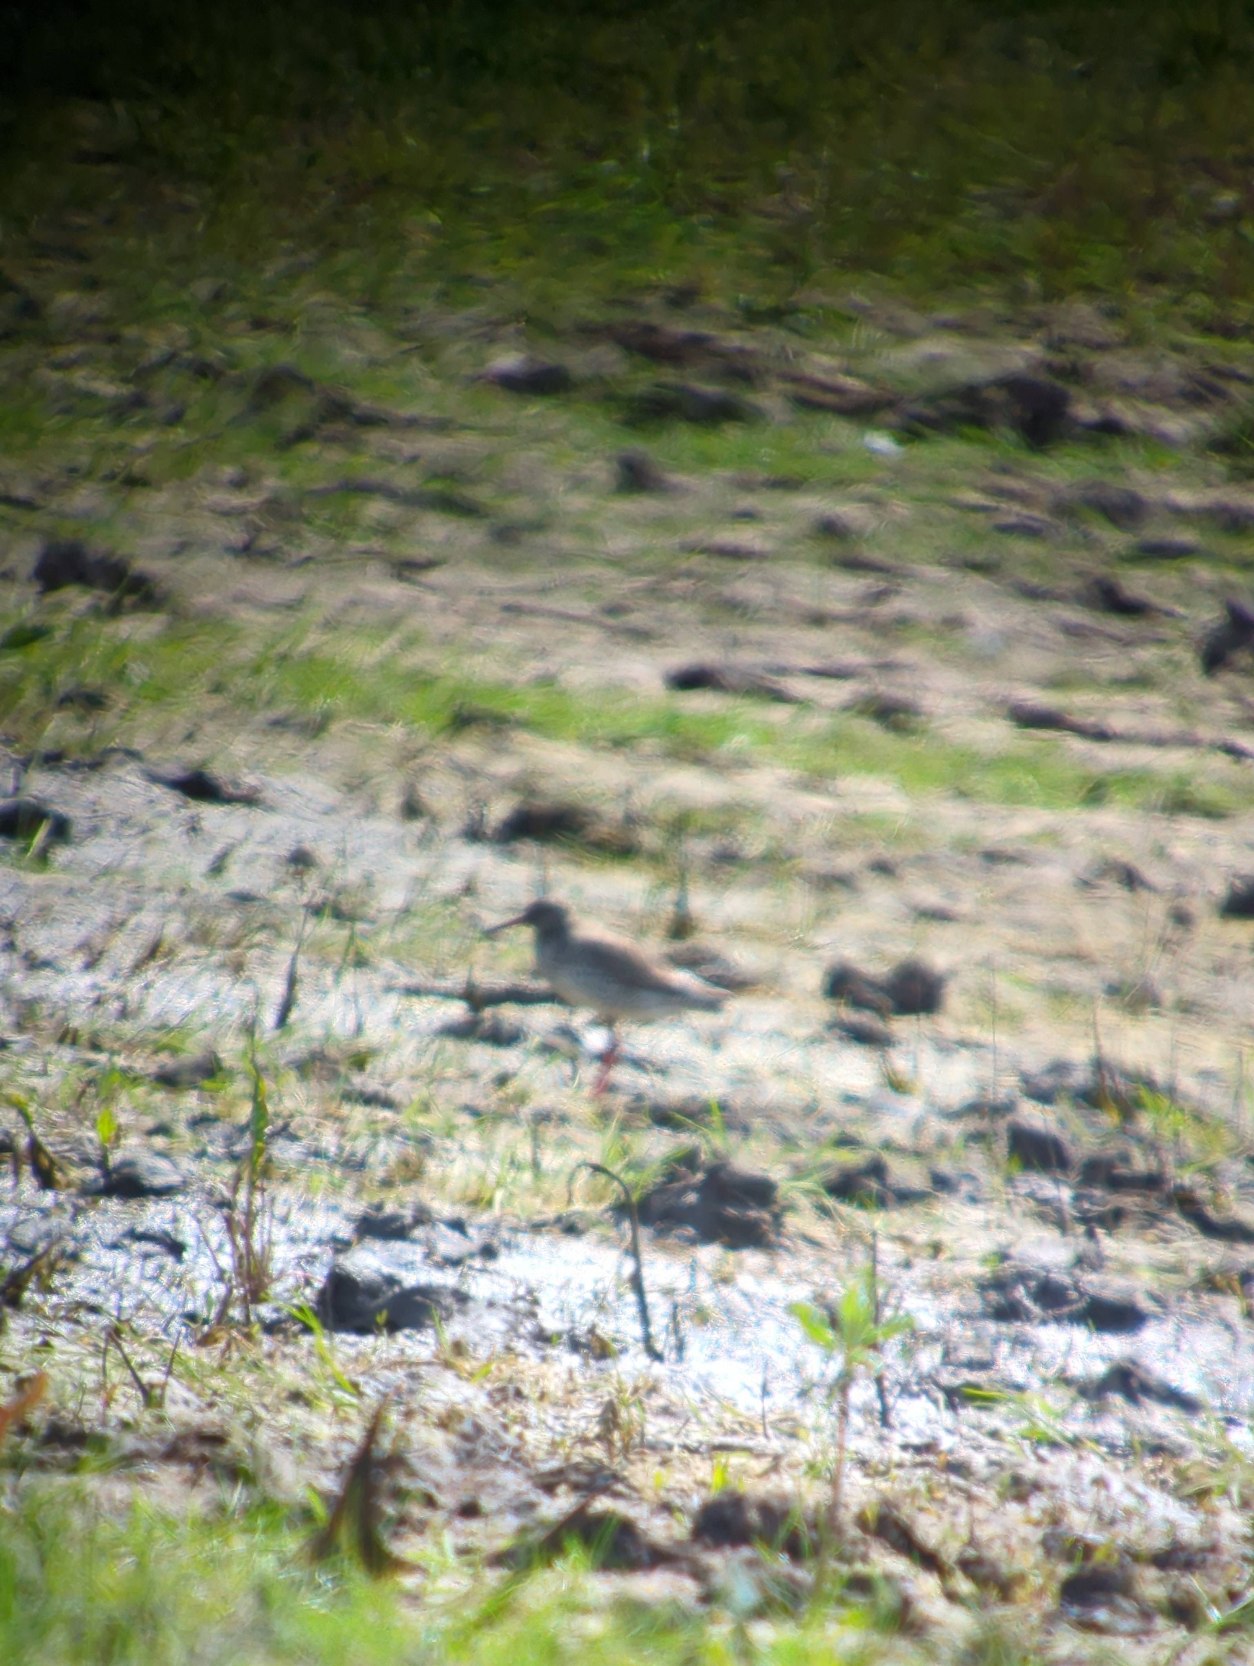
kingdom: Animalia
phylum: Chordata
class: Aves
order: Charadriiformes
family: Scolopacidae
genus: Tringa
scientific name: Tringa totanus
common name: Rødben
